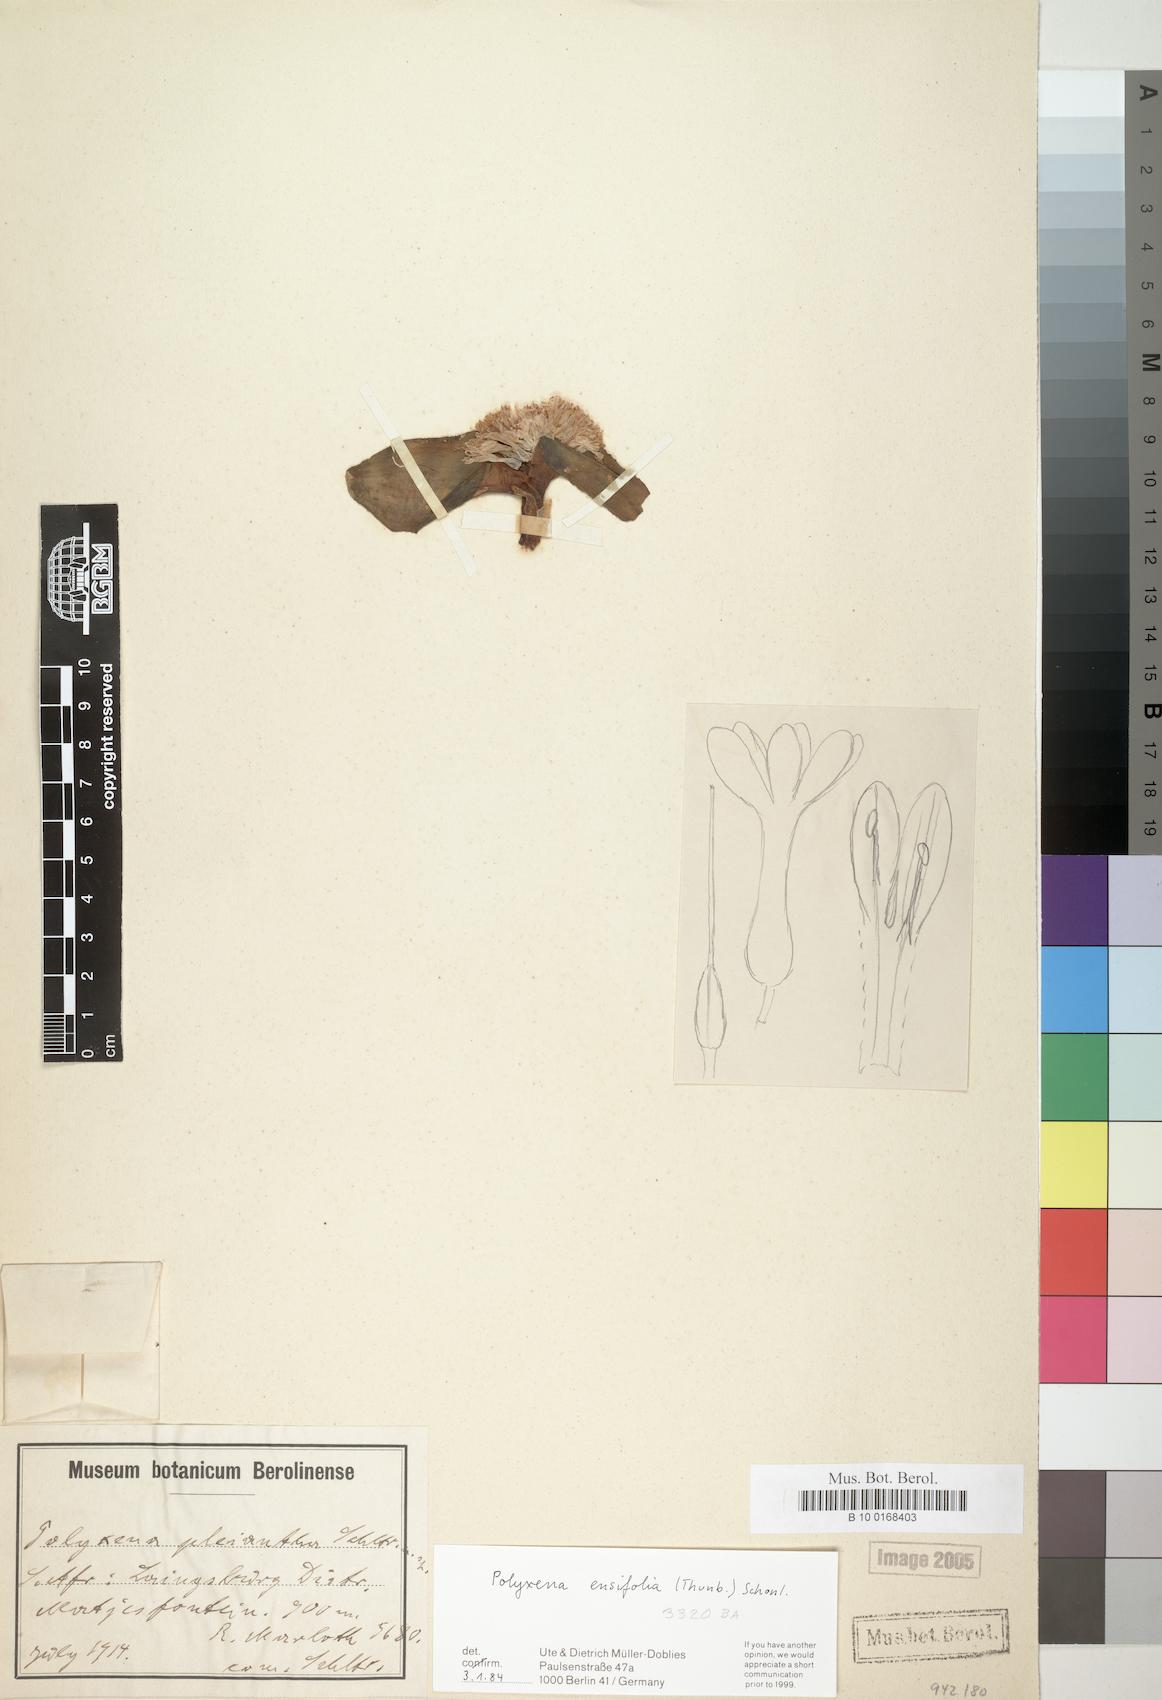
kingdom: Plantae
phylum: Tracheophyta
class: Liliopsida
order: Asparagales
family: Asparagaceae
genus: Lachenalia
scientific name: Lachenalia ensifolia
